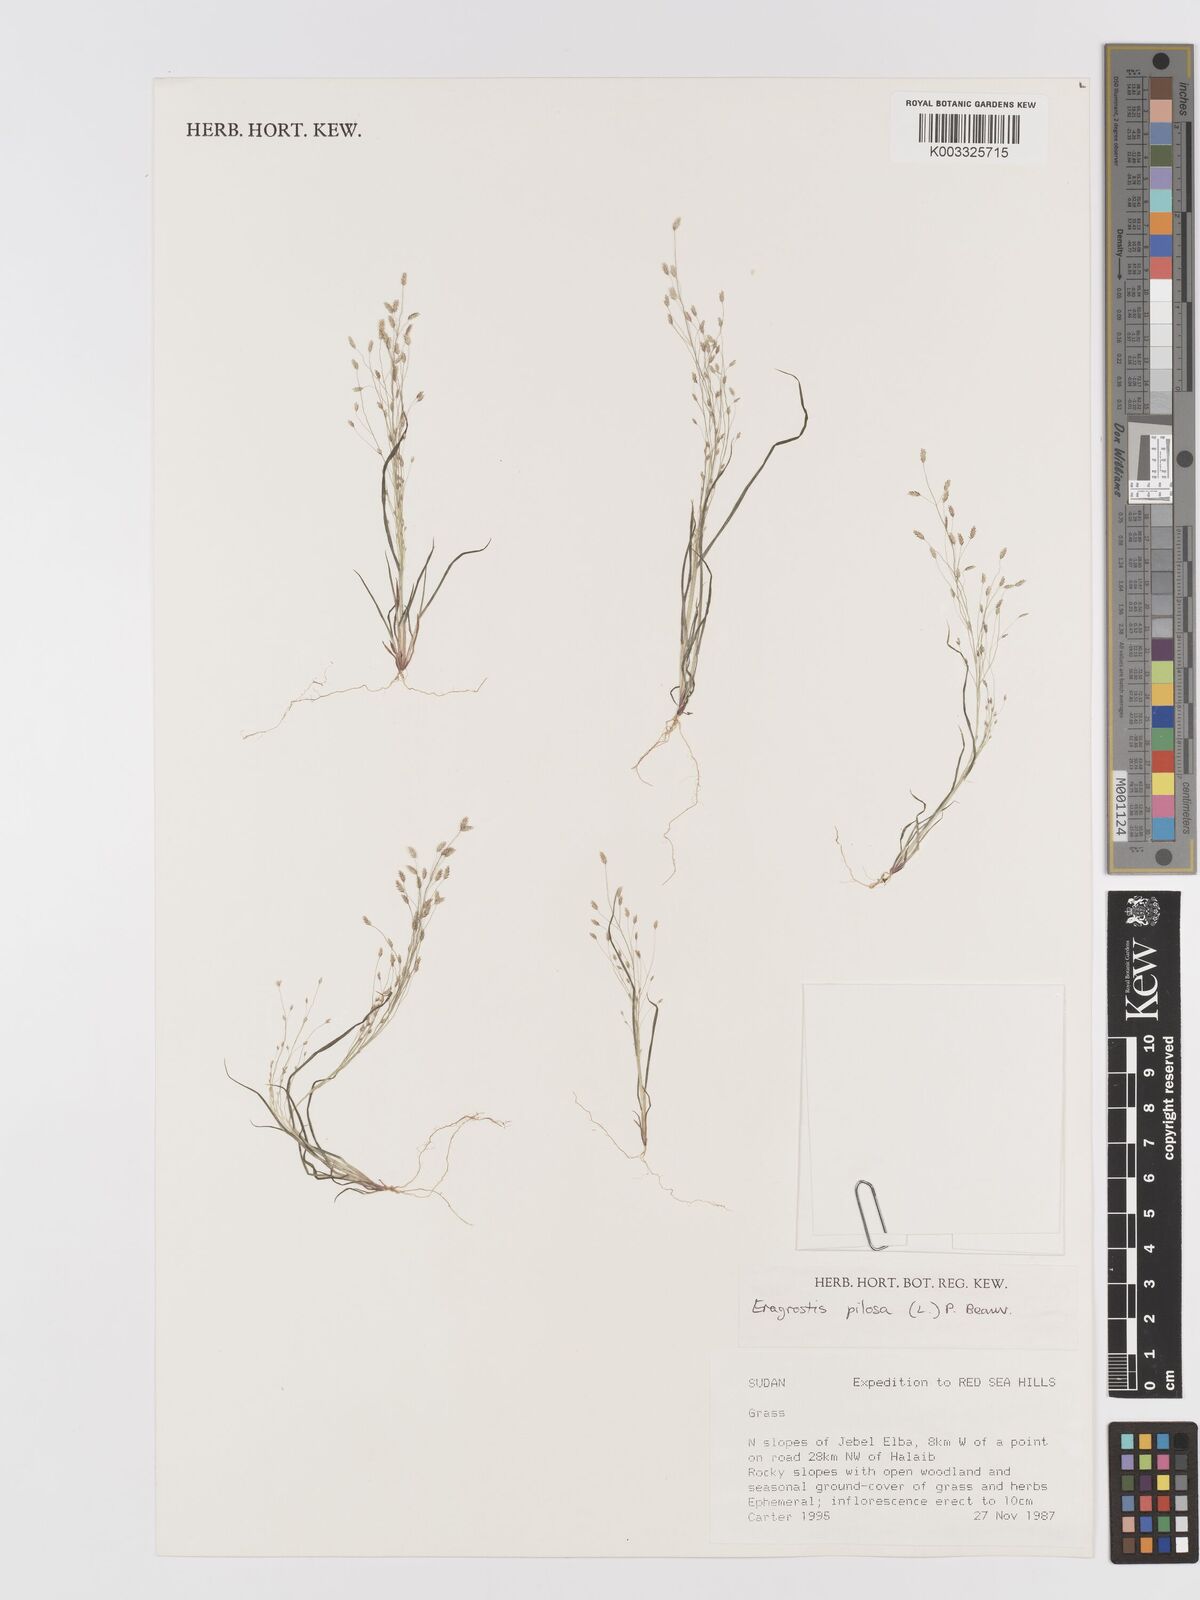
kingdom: Plantae
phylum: Tracheophyta
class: Liliopsida
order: Poales
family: Poaceae
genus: Eragrostis
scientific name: Eragrostis pilosa
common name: Indian lovegrass
